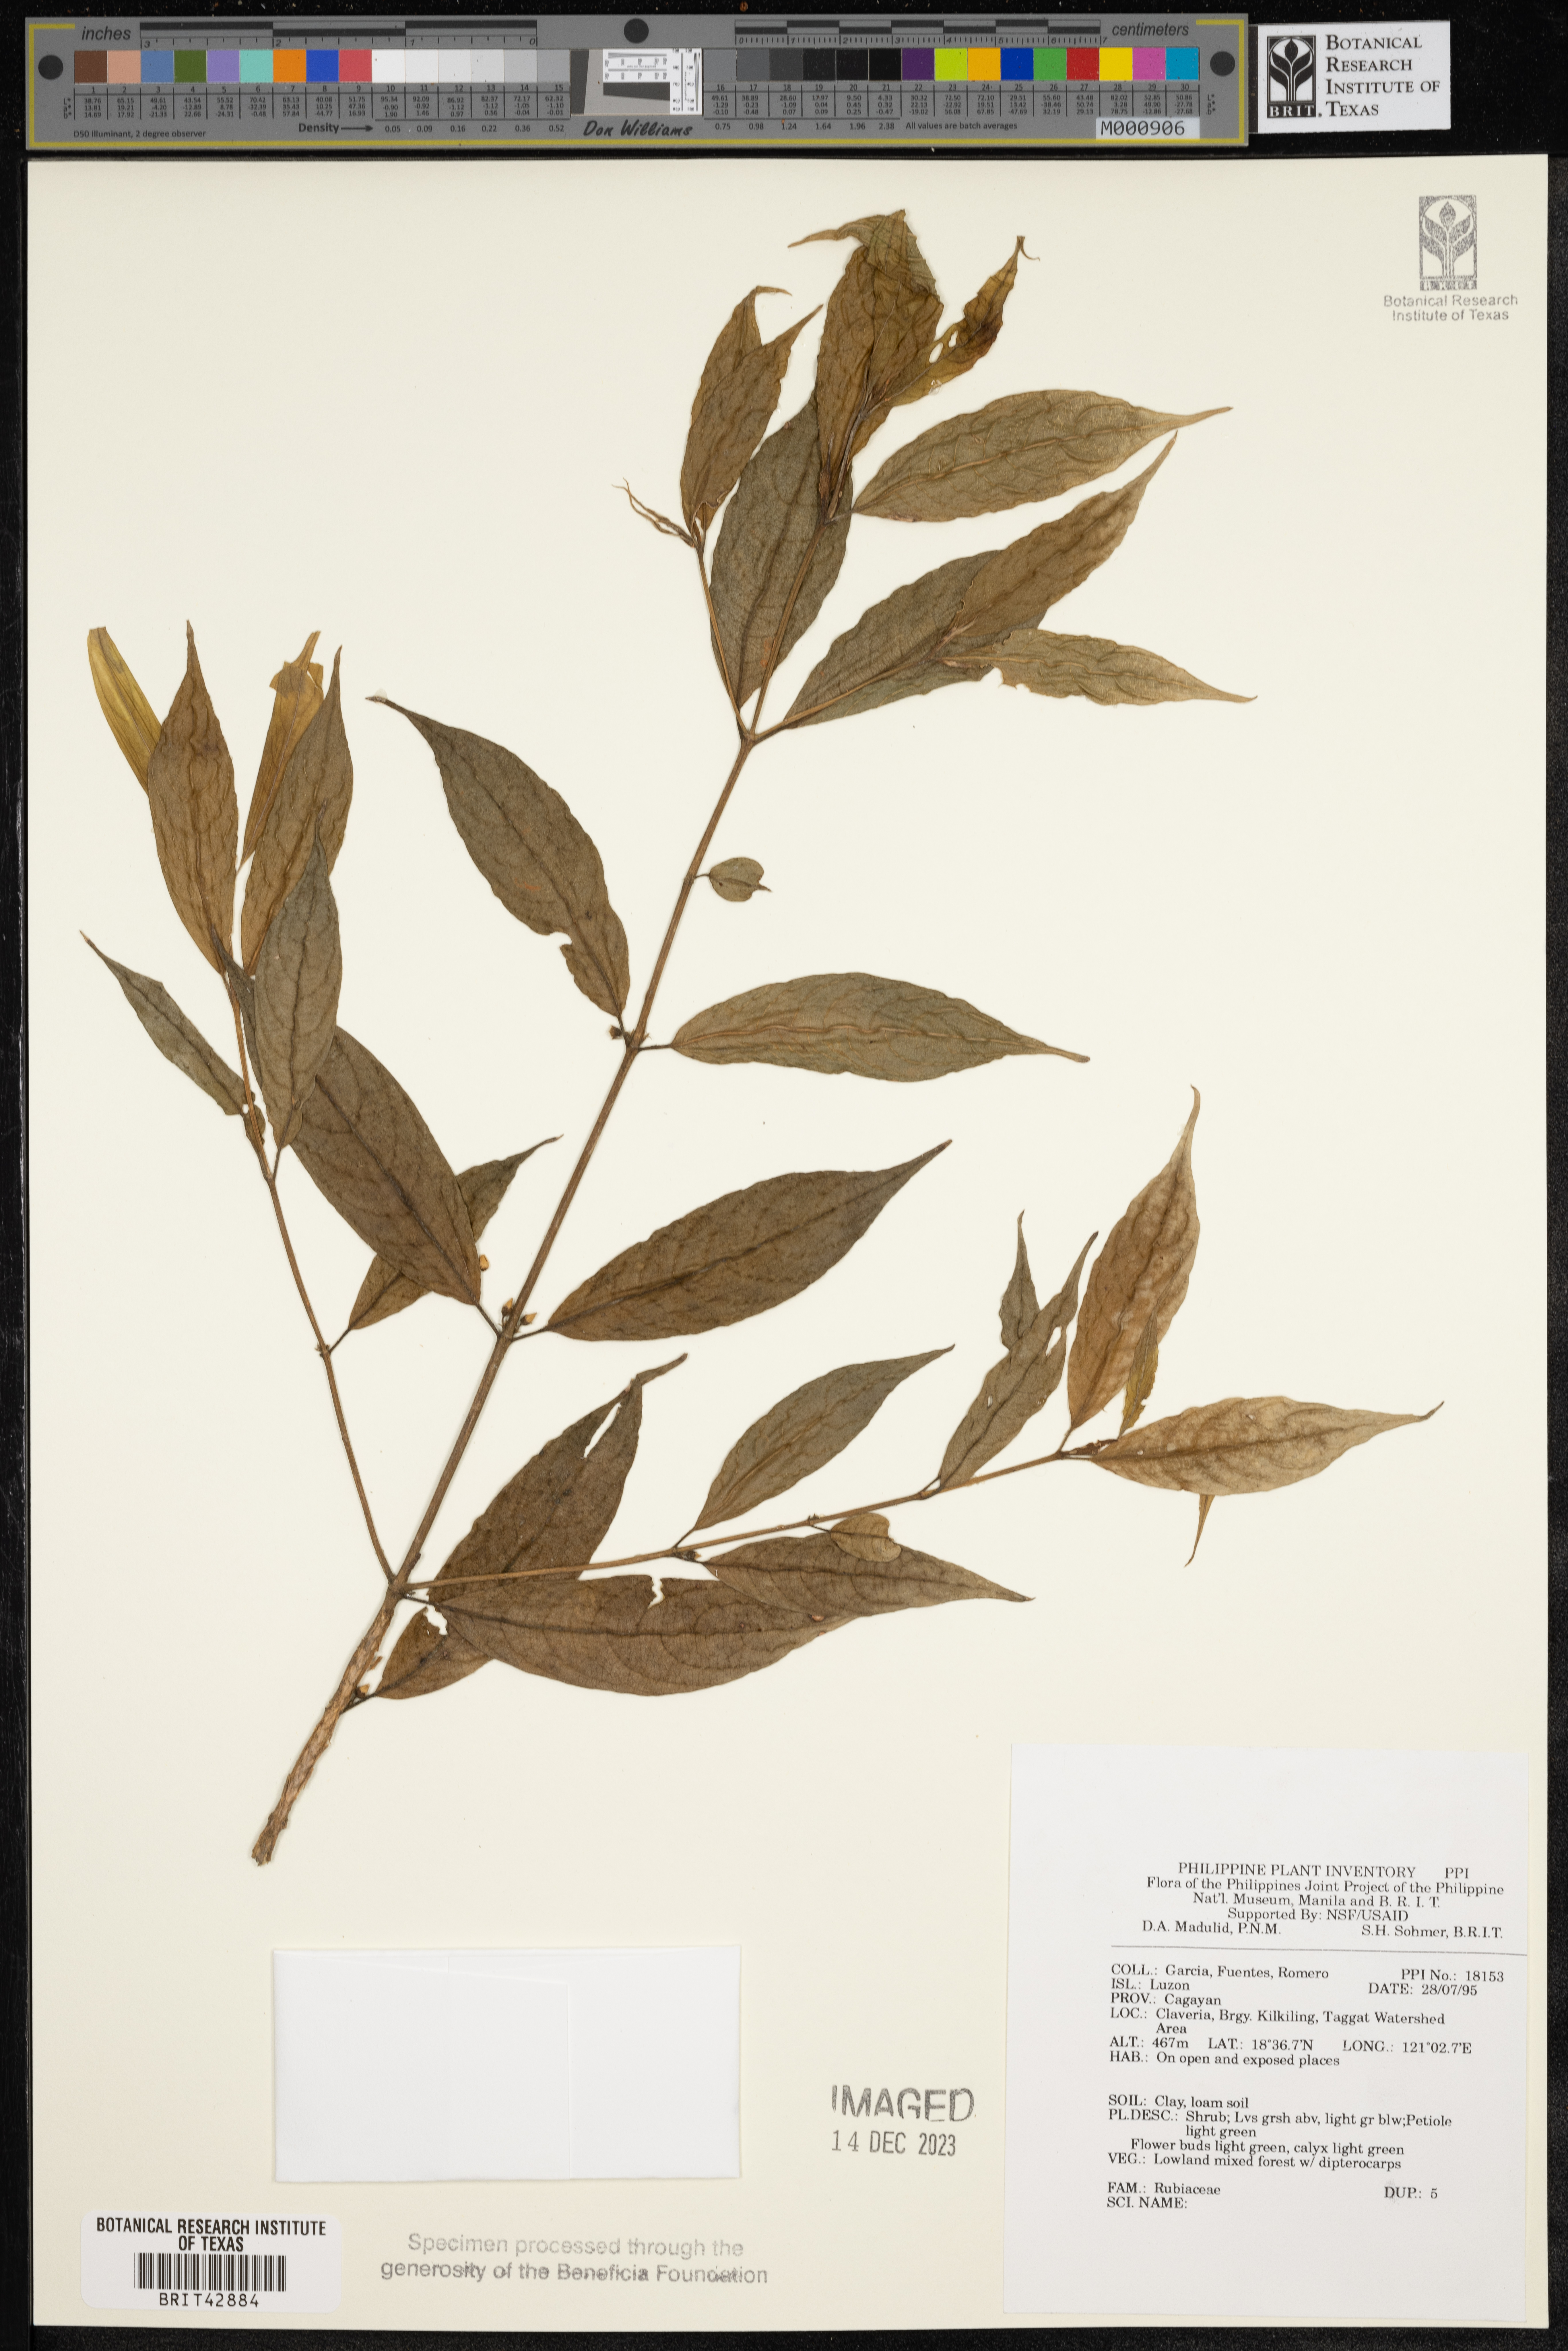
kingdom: Plantae
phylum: Tracheophyta
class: Magnoliopsida
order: Gentianales
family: Rubiaceae
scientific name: Rubiaceae
